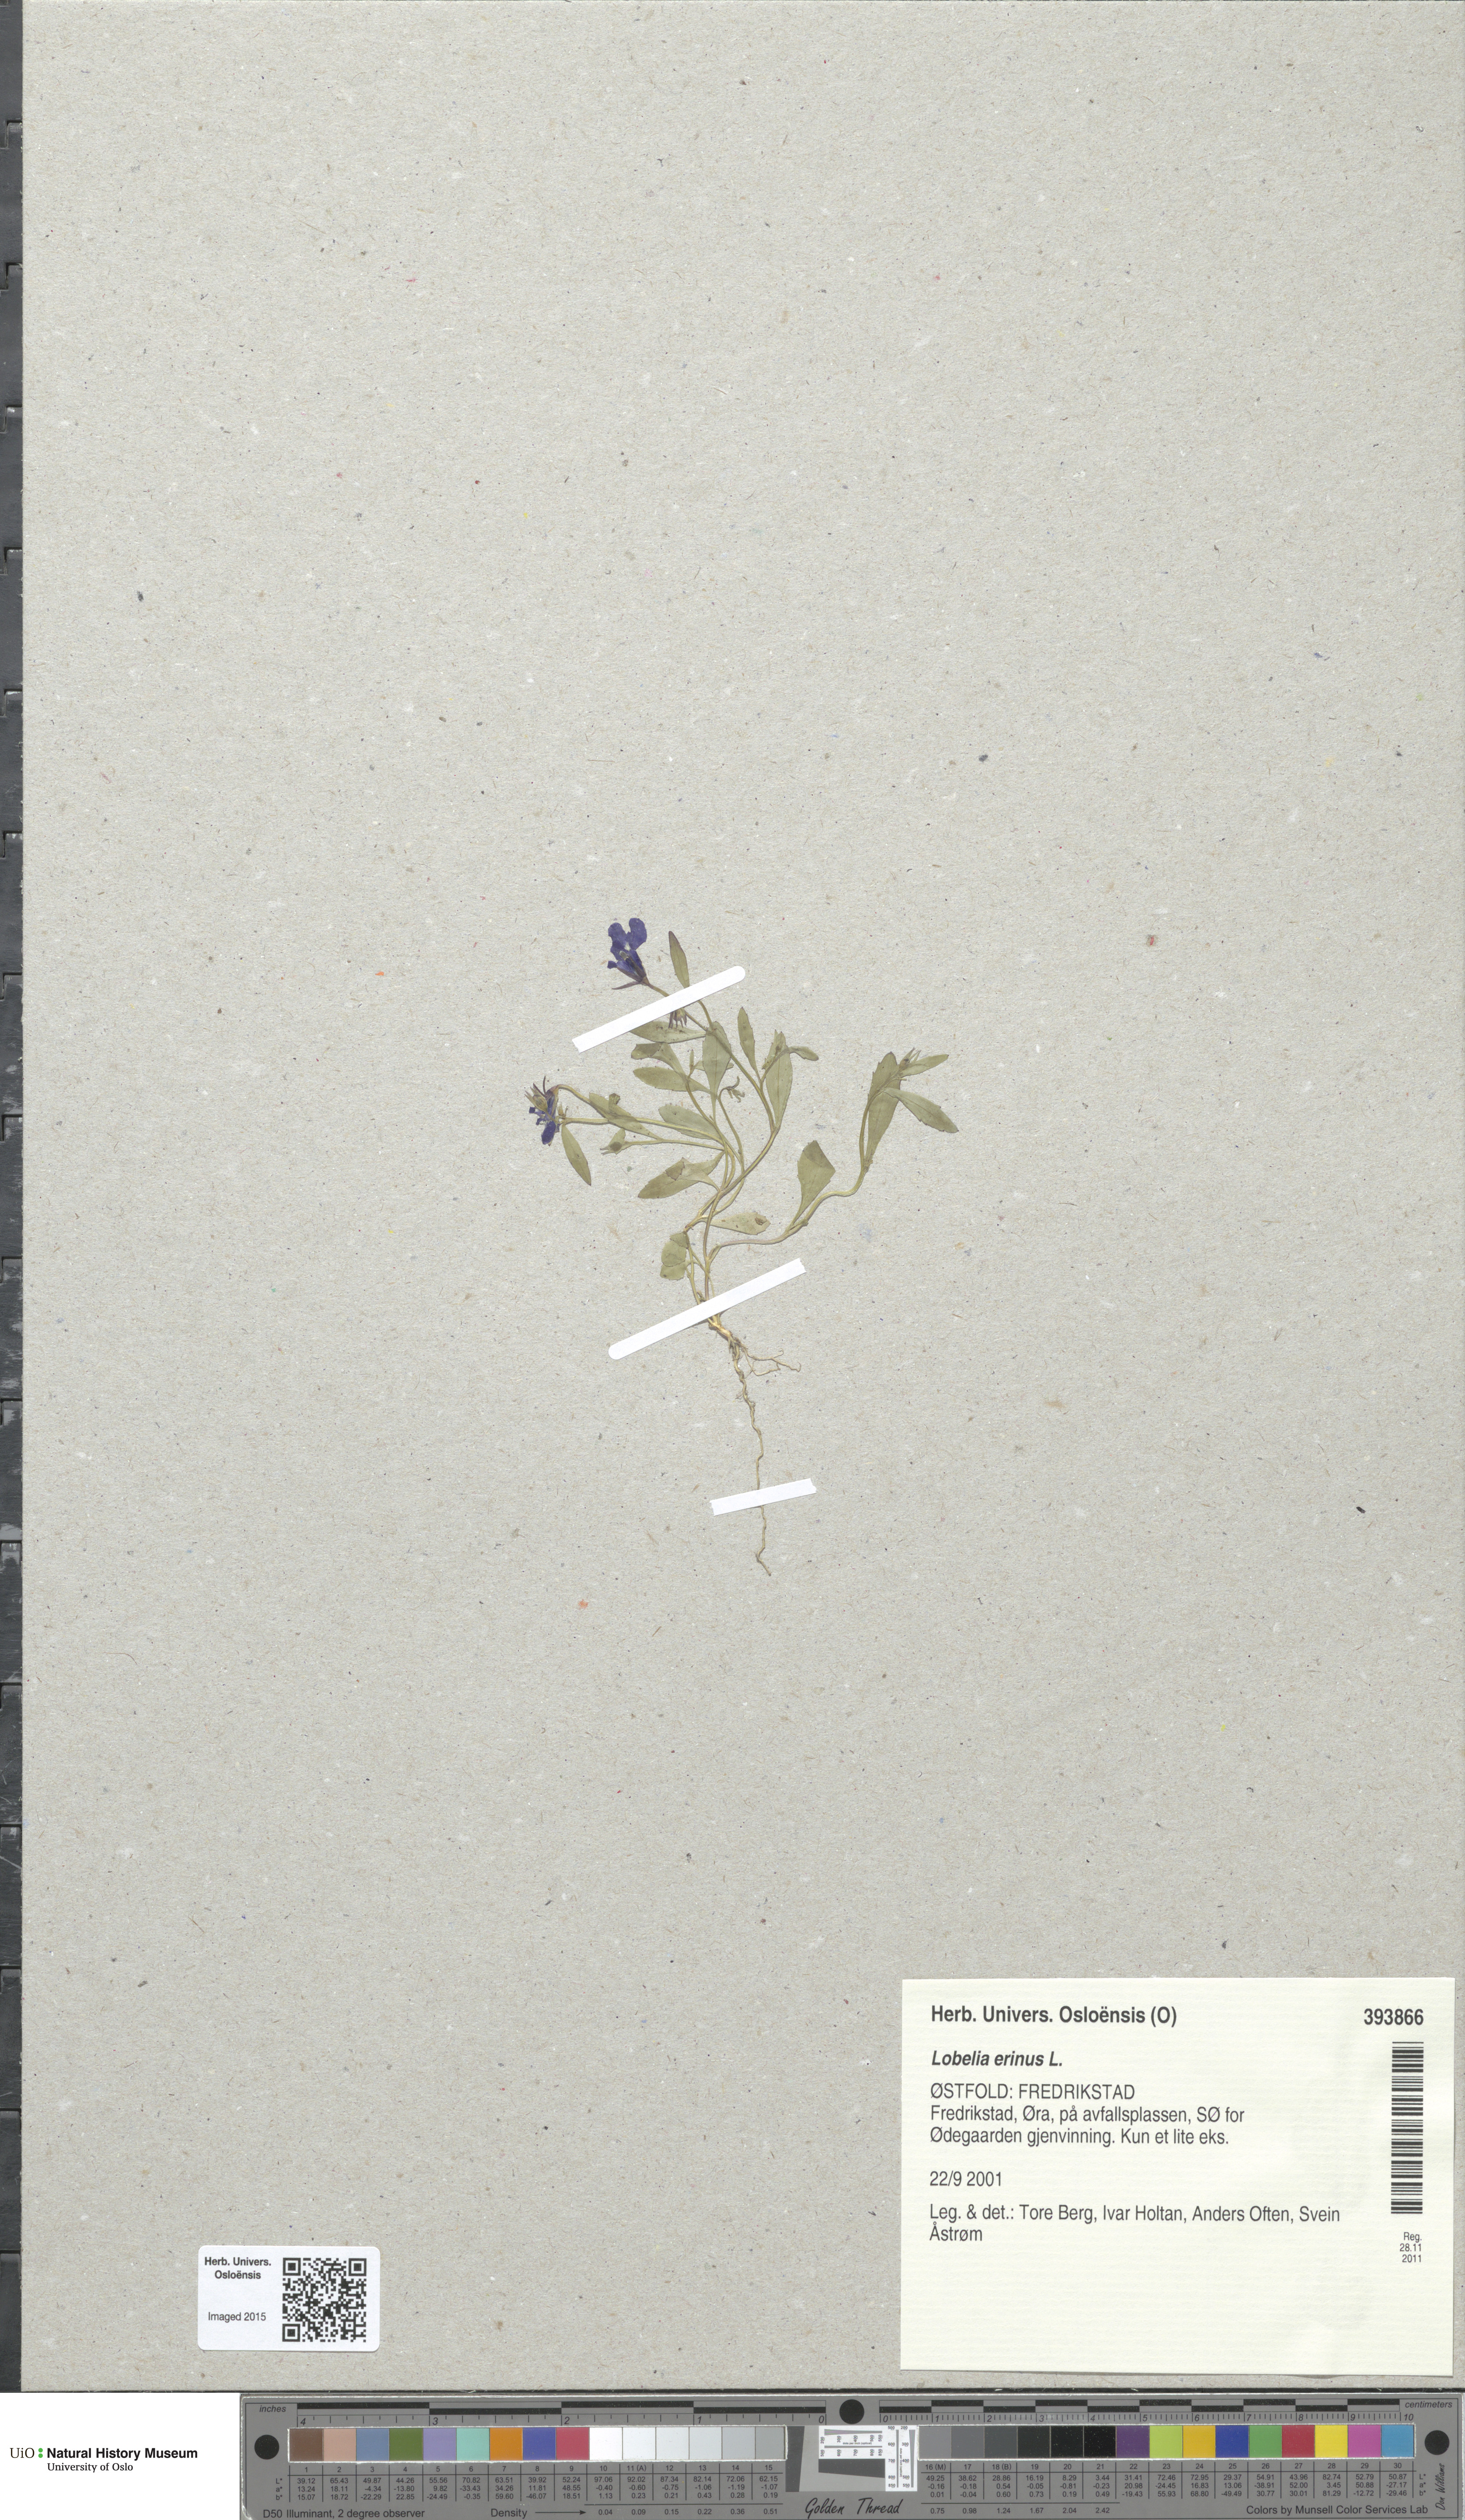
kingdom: Plantae
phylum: Tracheophyta
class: Magnoliopsida
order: Asterales
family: Campanulaceae
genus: Lobelia
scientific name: Lobelia erinus
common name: Edging lobelia
